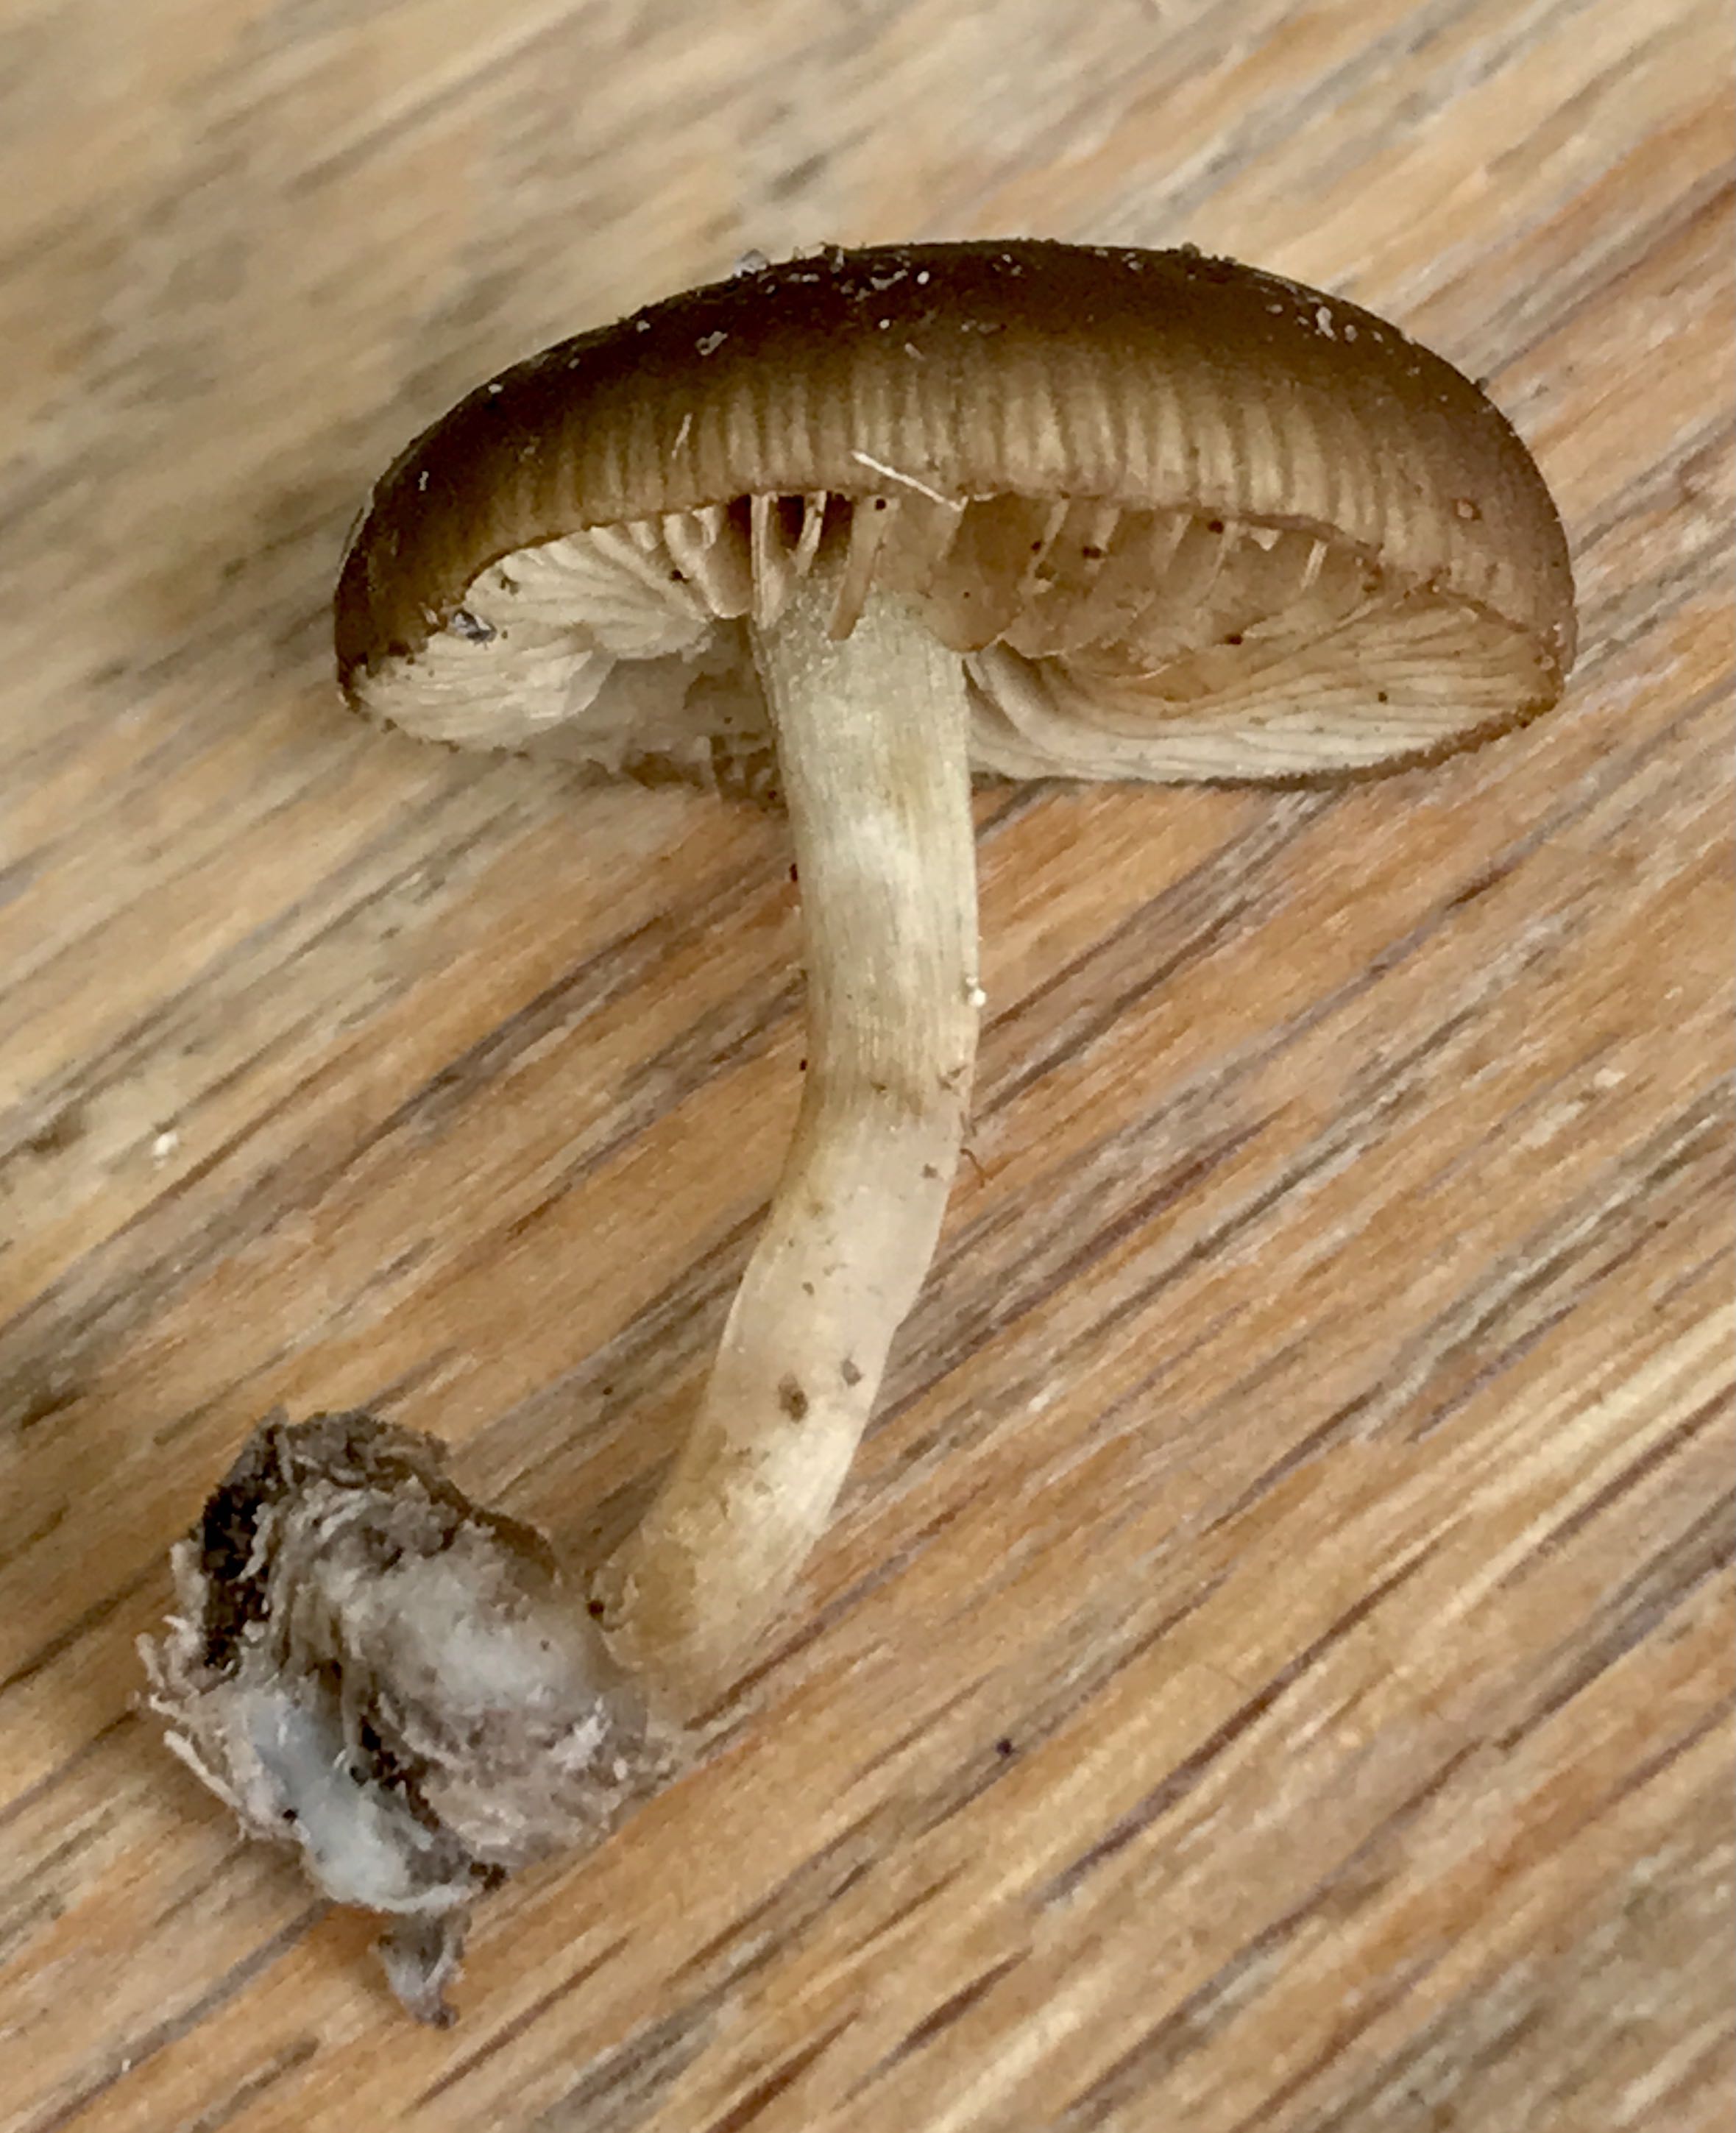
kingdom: Fungi
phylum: Basidiomycota
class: Agaricomycetes
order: Agaricales
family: Crepidotaceae
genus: Simocybe
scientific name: Simocybe
